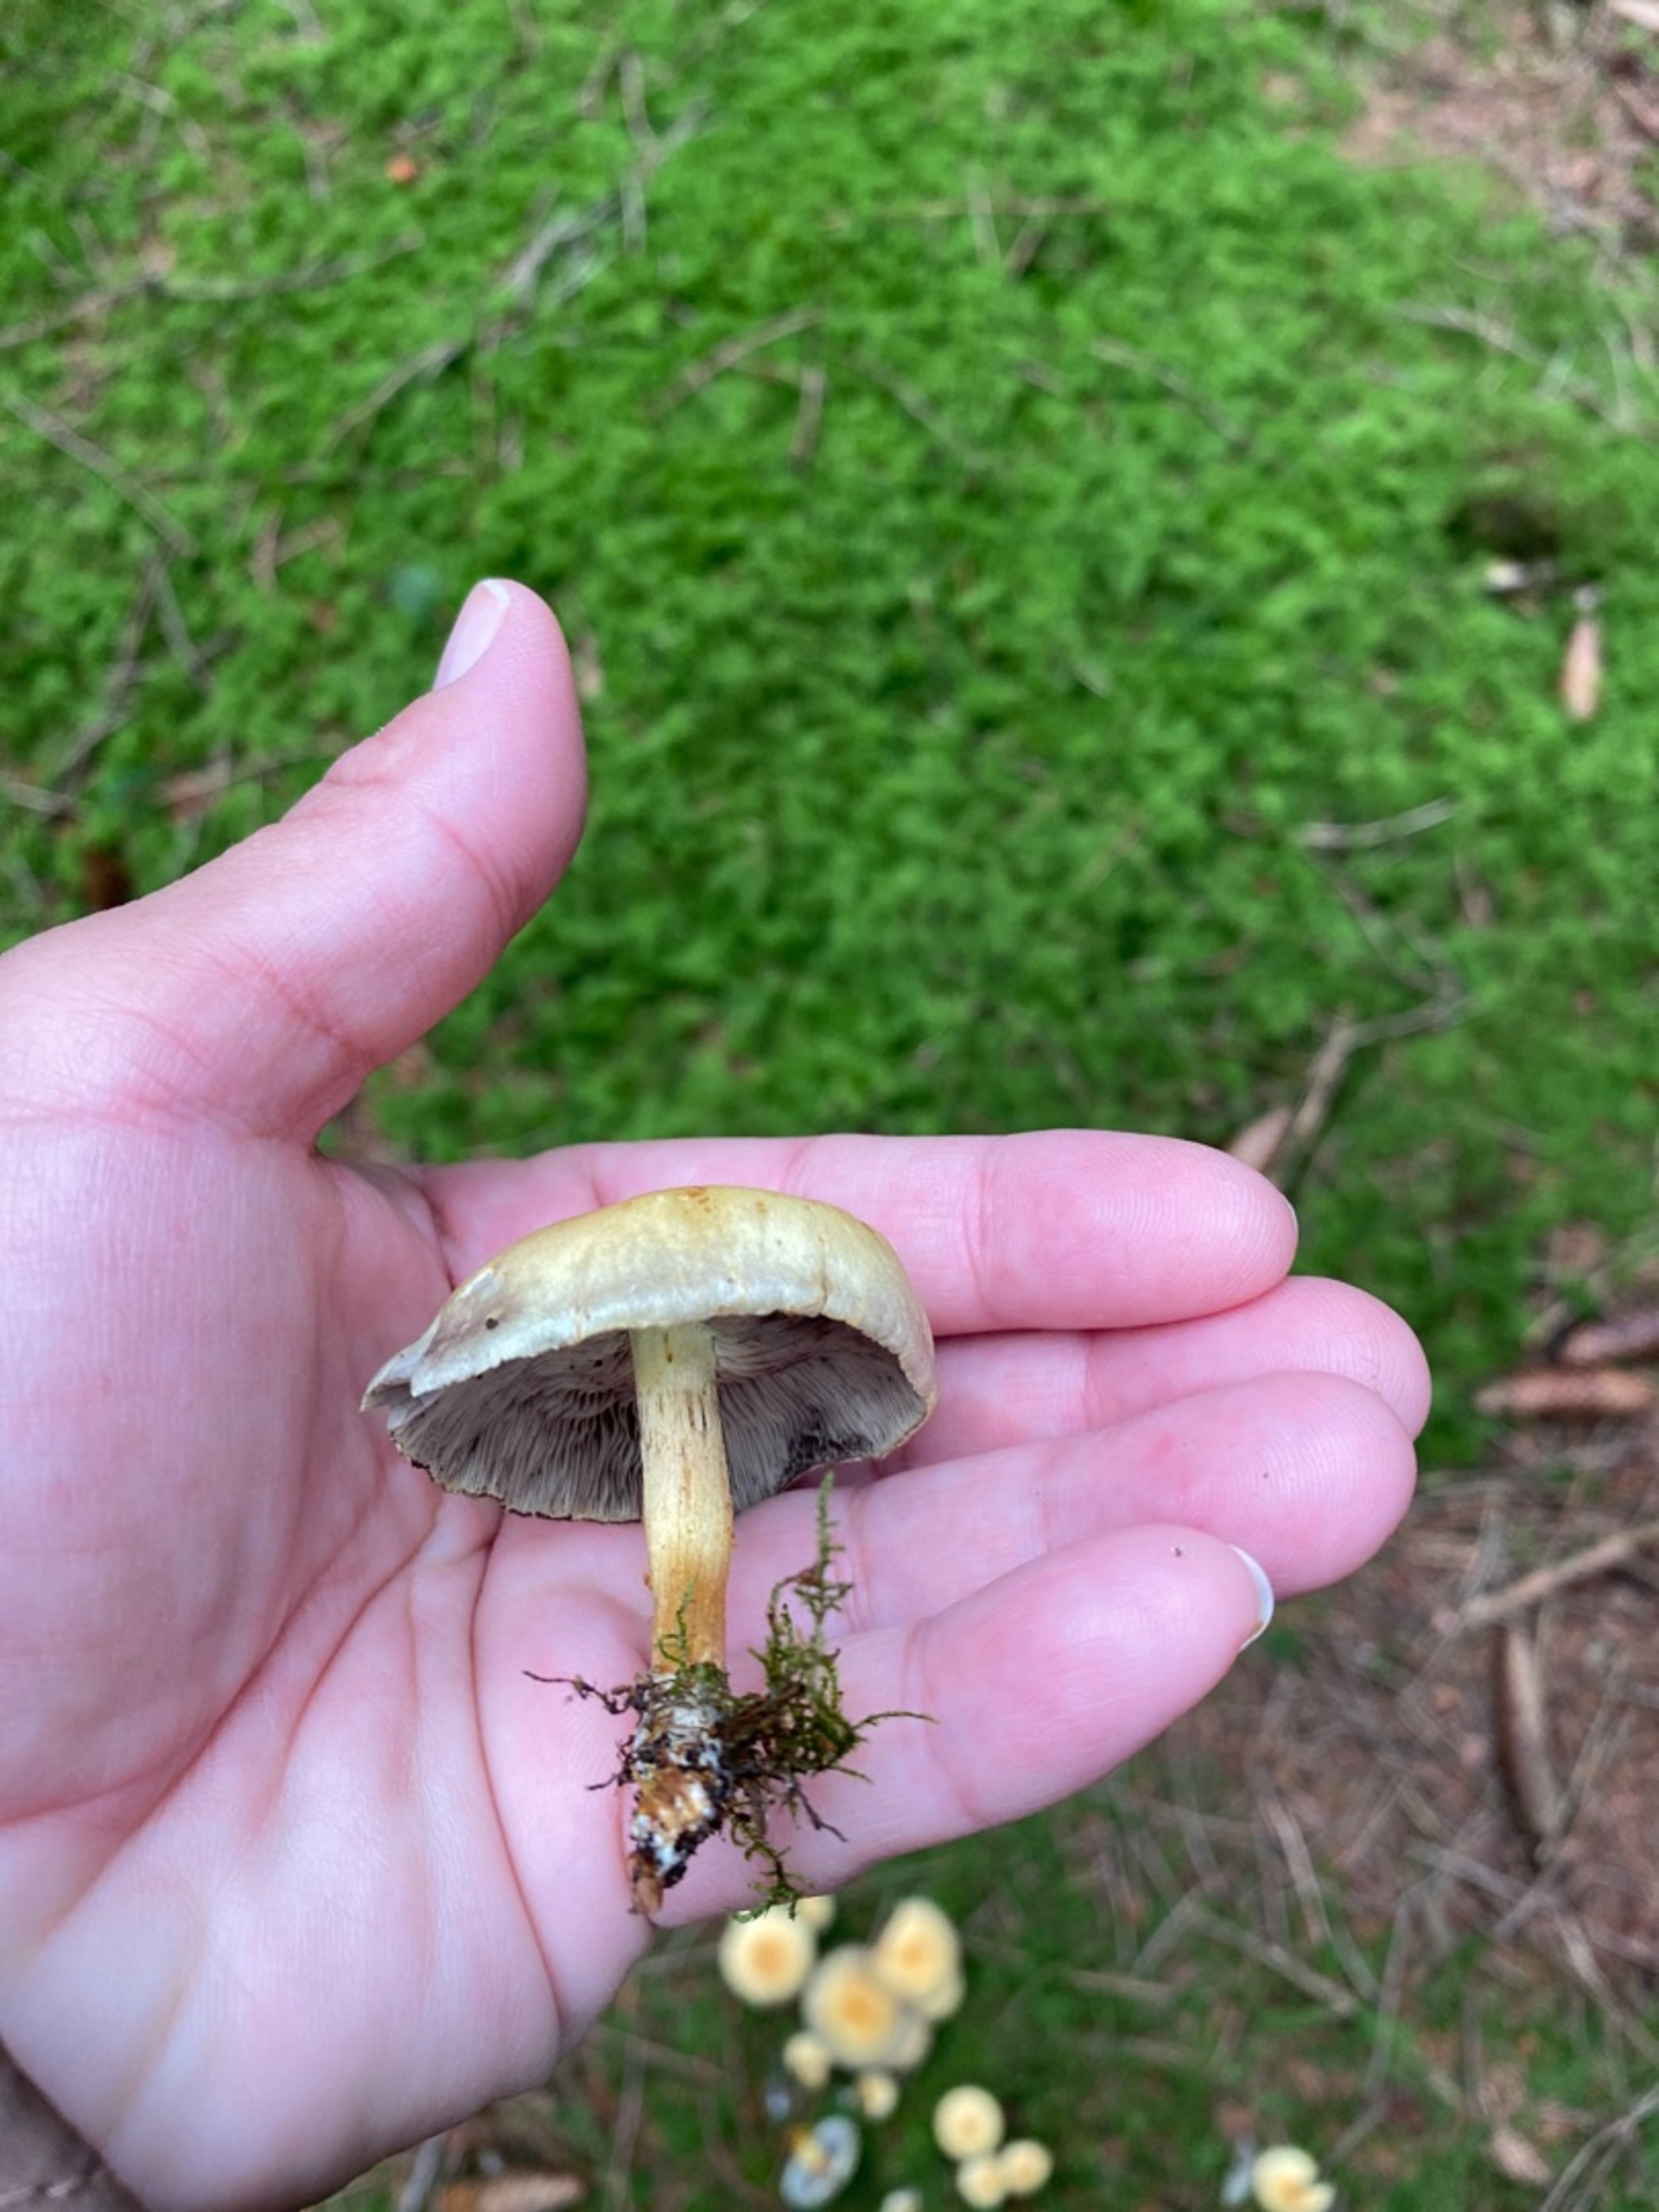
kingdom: Fungi
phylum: Basidiomycota
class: Agaricomycetes
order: Agaricales
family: Strophariaceae
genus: Hypholoma
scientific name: Hypholoma fasciculare
